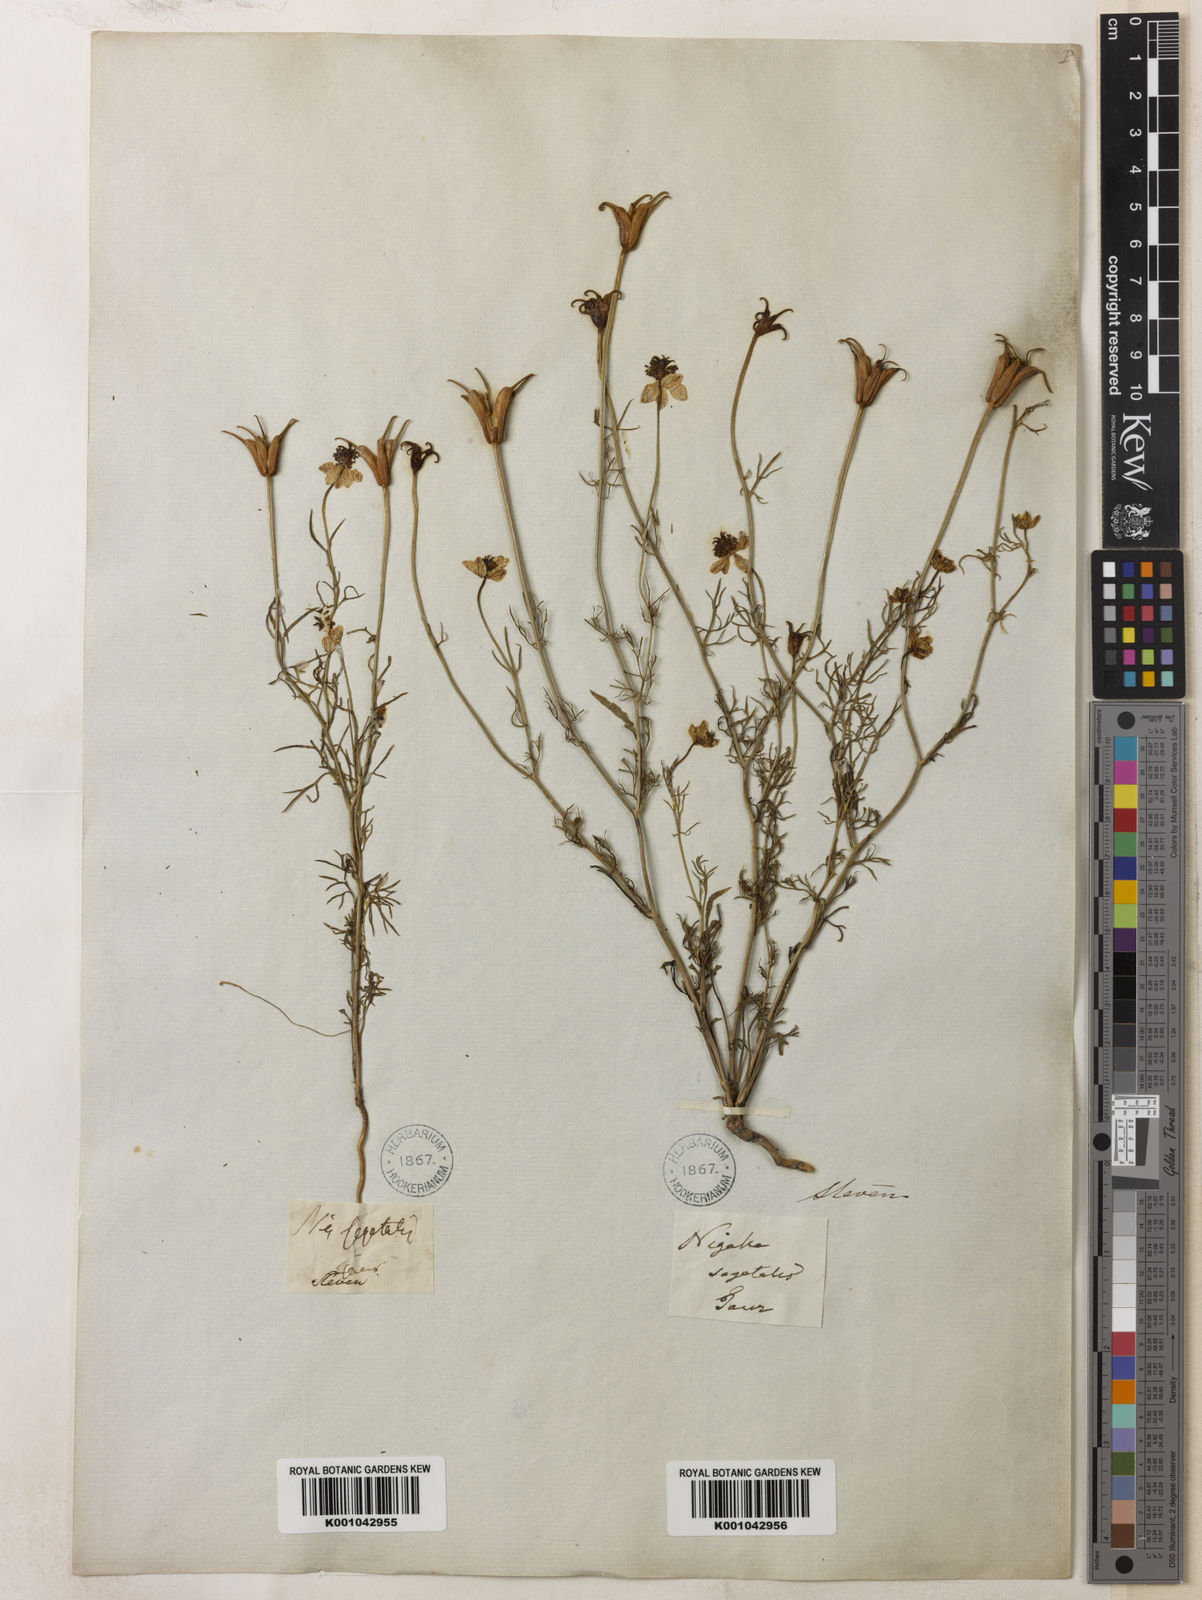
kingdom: Plantae
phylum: Tracheophyta
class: Magnoliopsida
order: Ranunculales
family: Ranunculaceae
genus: Nigella
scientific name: Nigella segetalis
